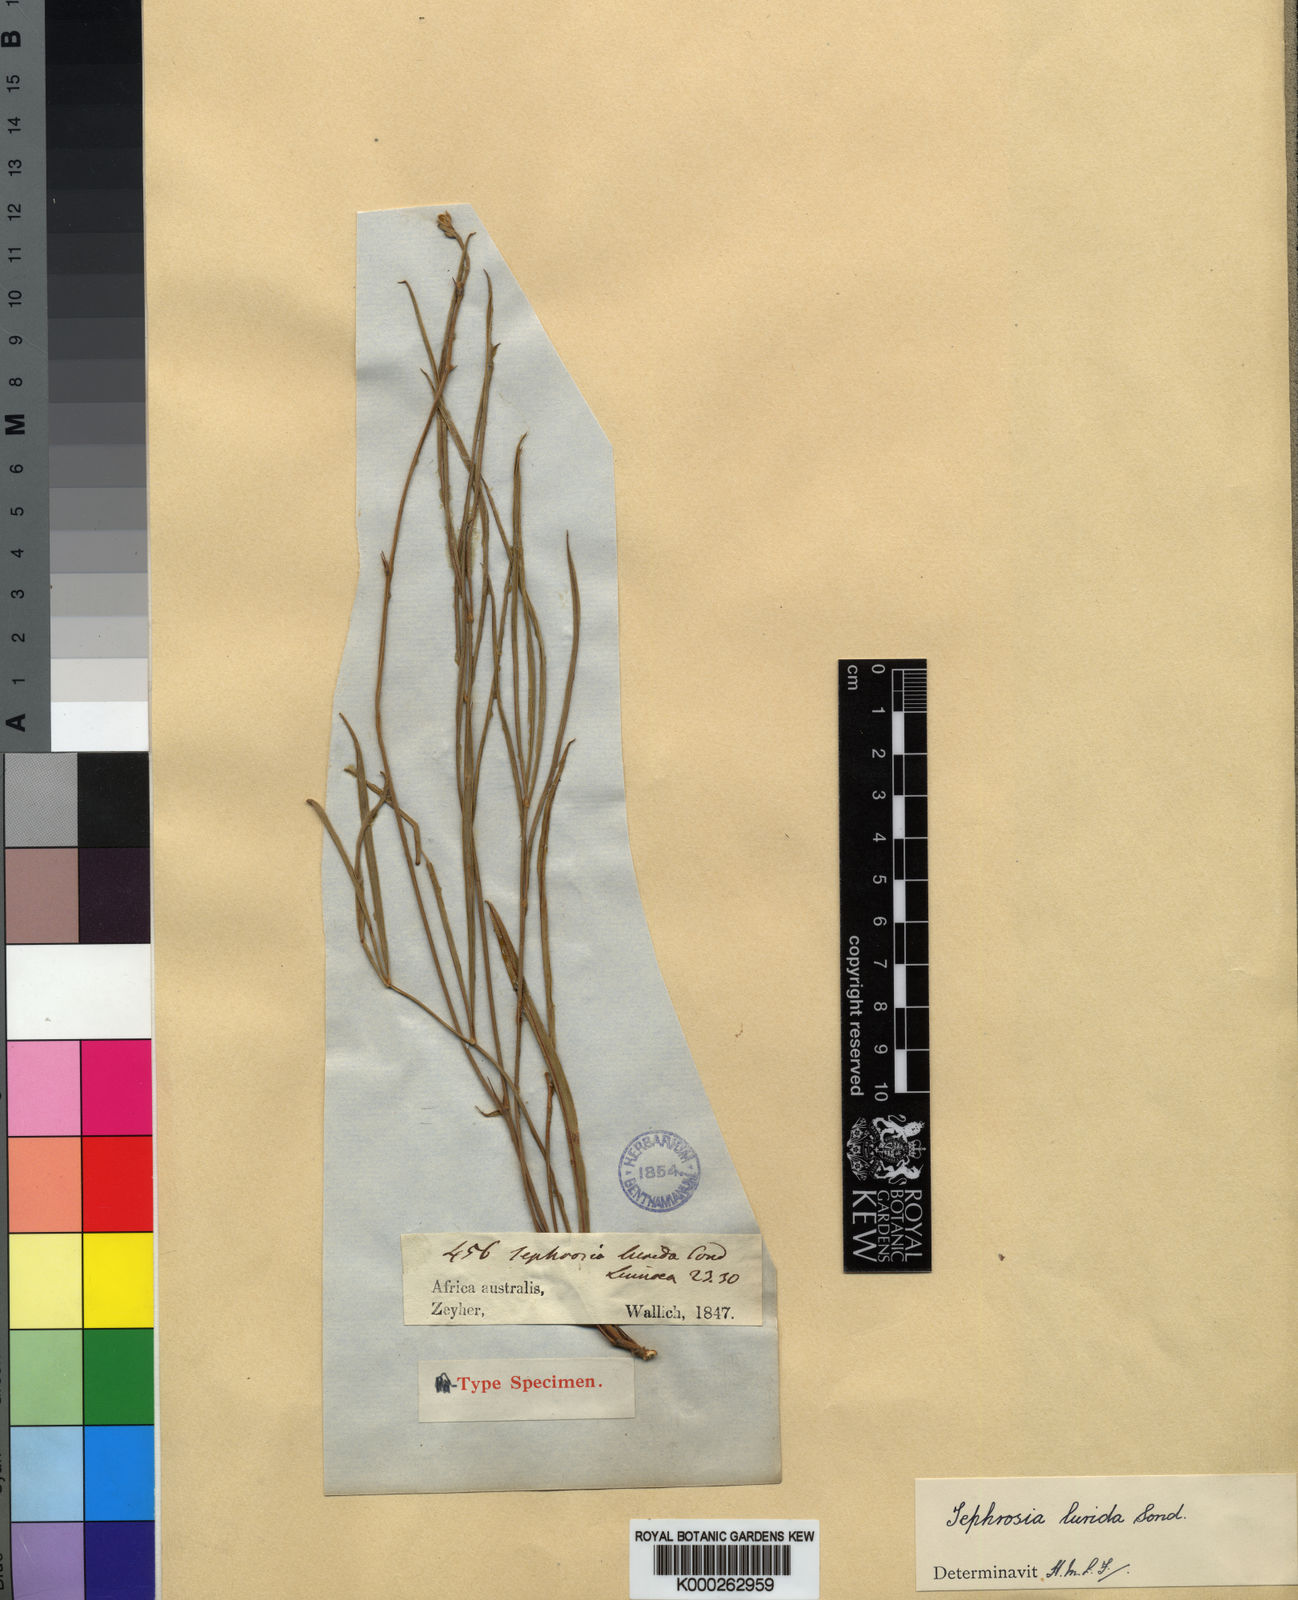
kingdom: Plantae
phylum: Tracheophyta
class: Magnoliopsida
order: Fabales
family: Fabaceae
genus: Tephrosia
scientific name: Tephrosia longipes
